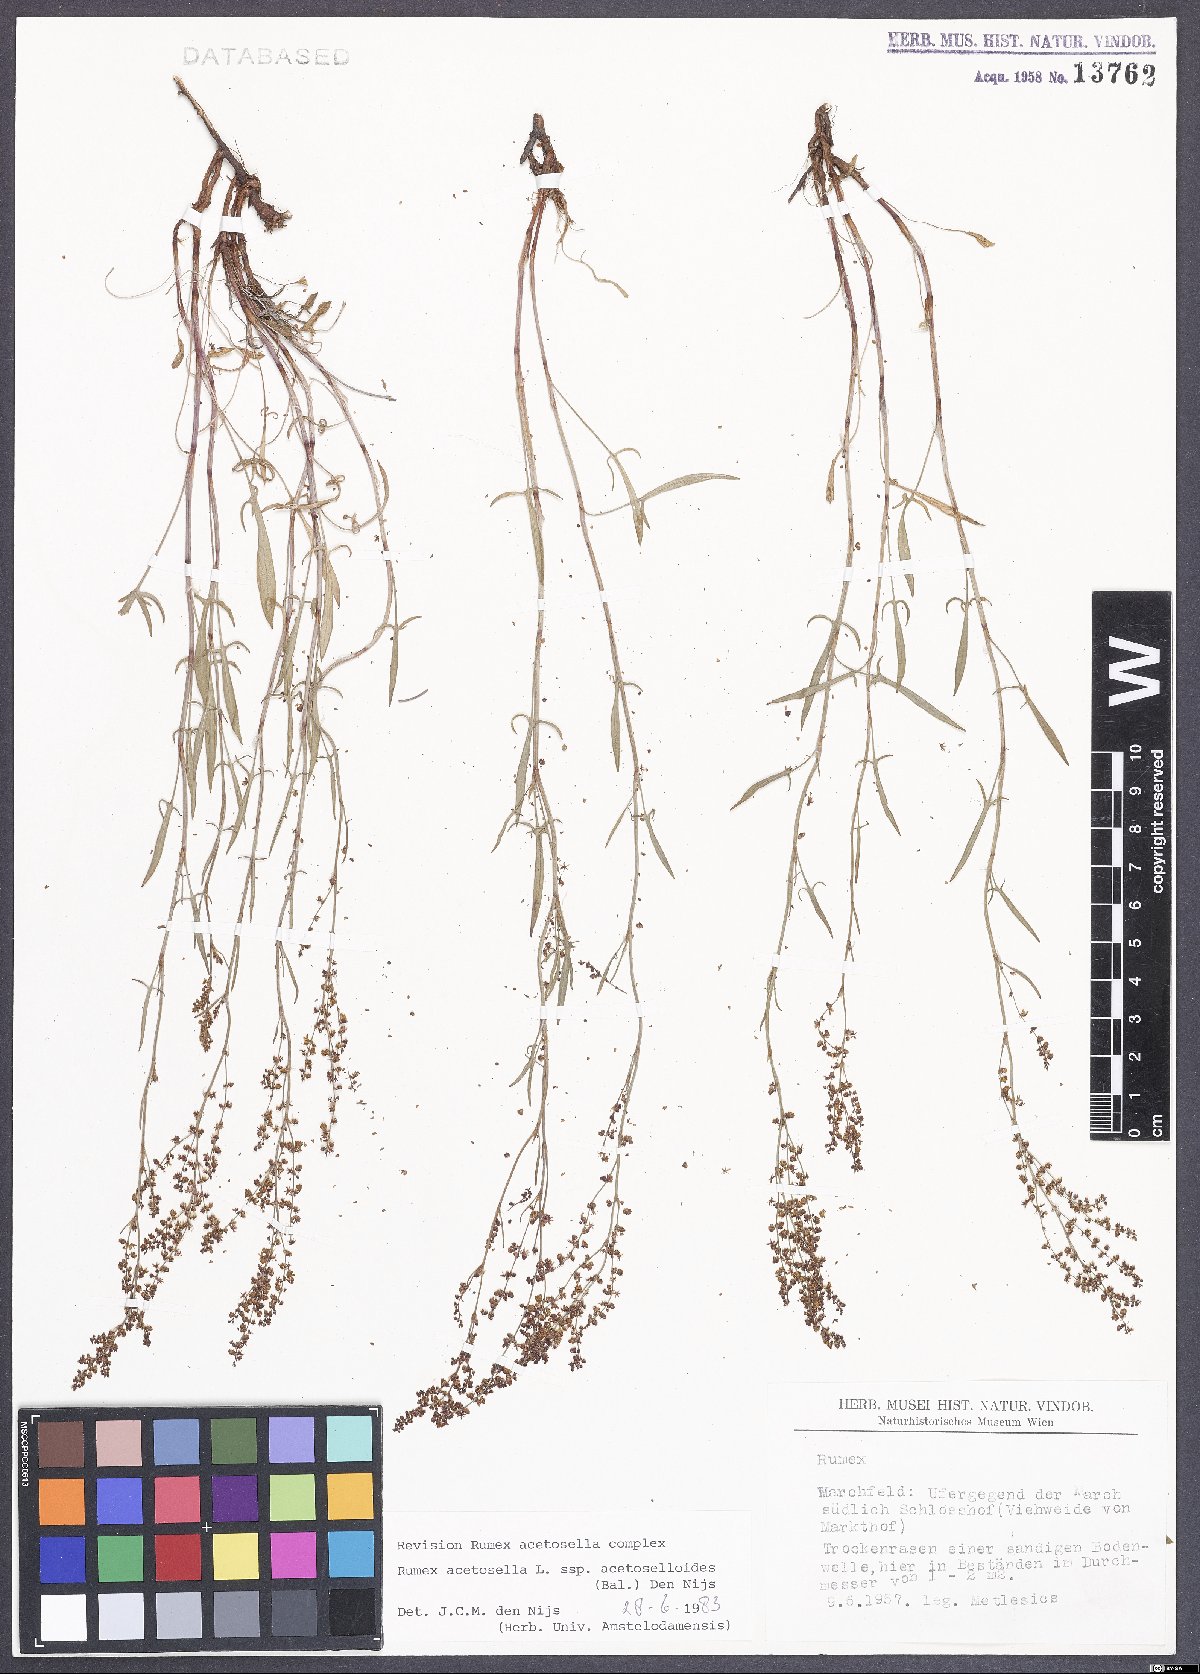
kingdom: Plantae
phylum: Tracheophyta
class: Magnoliopsida
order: Caryophyllales
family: Polygonaceae
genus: Rumex
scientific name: Rumex acetosella
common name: Common sheep sorrel
